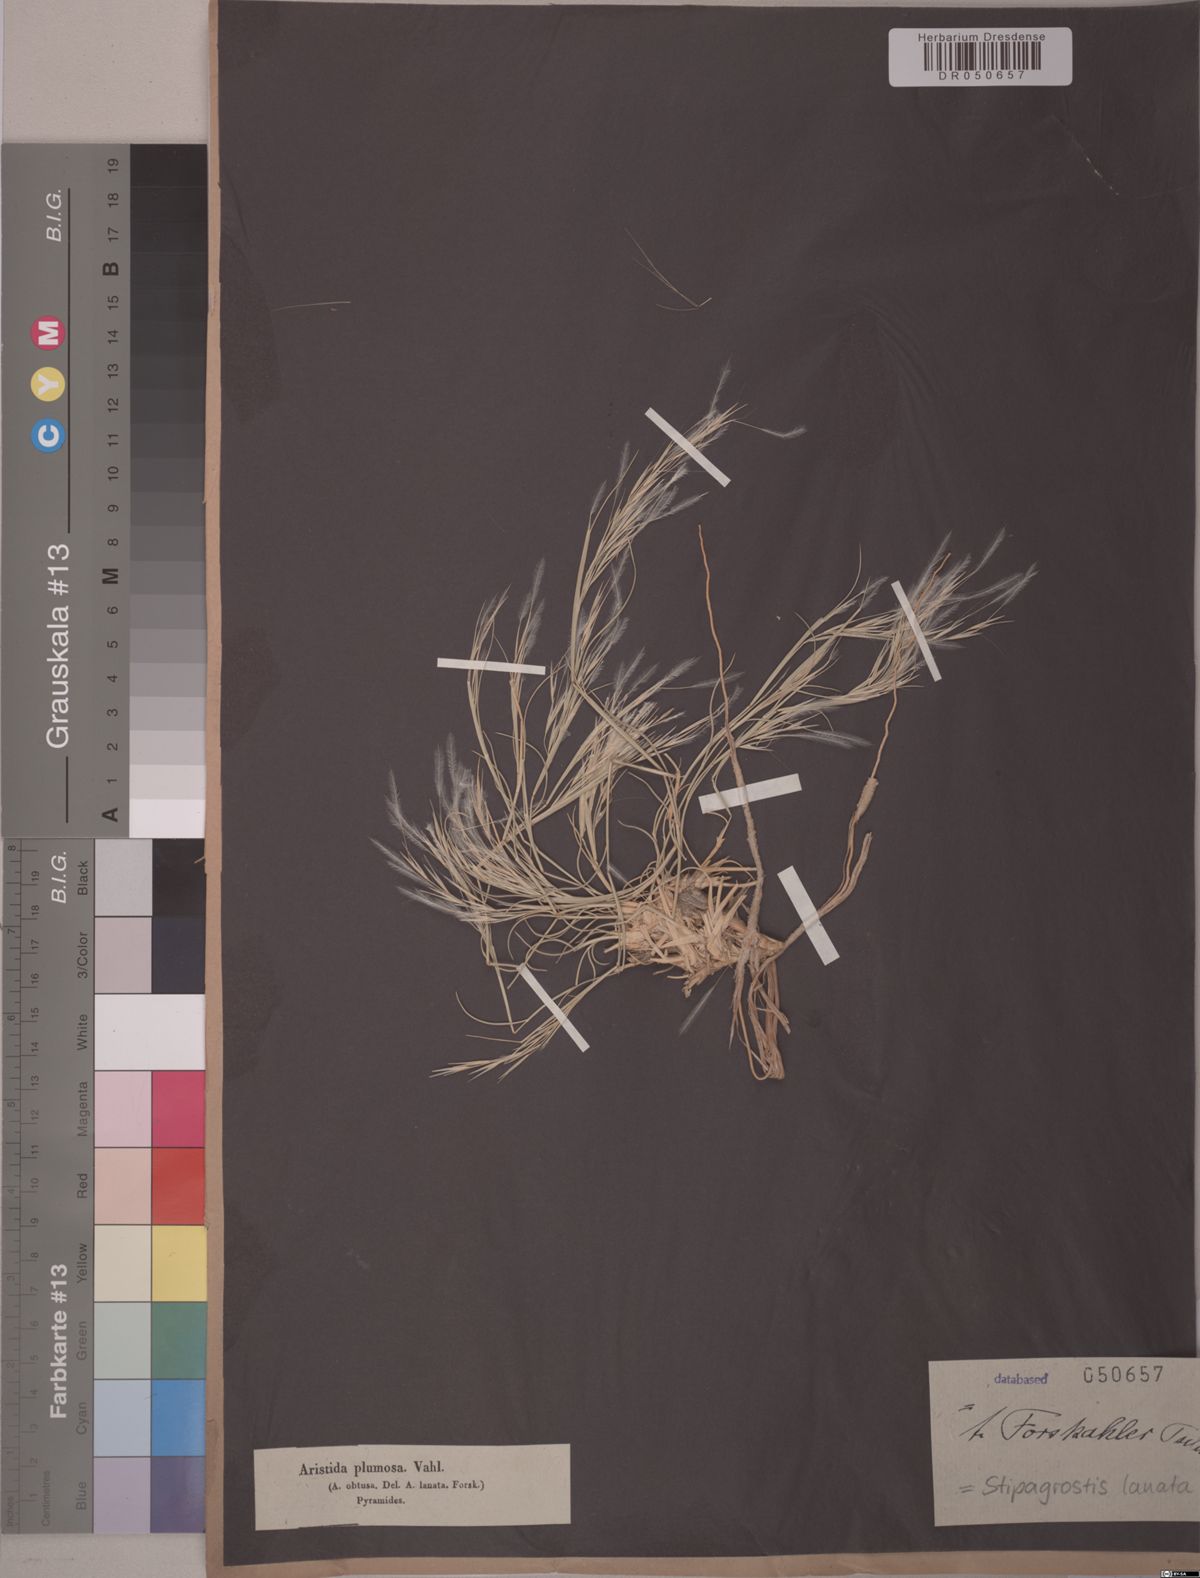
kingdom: Plantae
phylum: Tracheophyta
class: Liliopsida
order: Poales
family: Poaceae
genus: Stipagrostis
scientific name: Stipagrostis lanata
